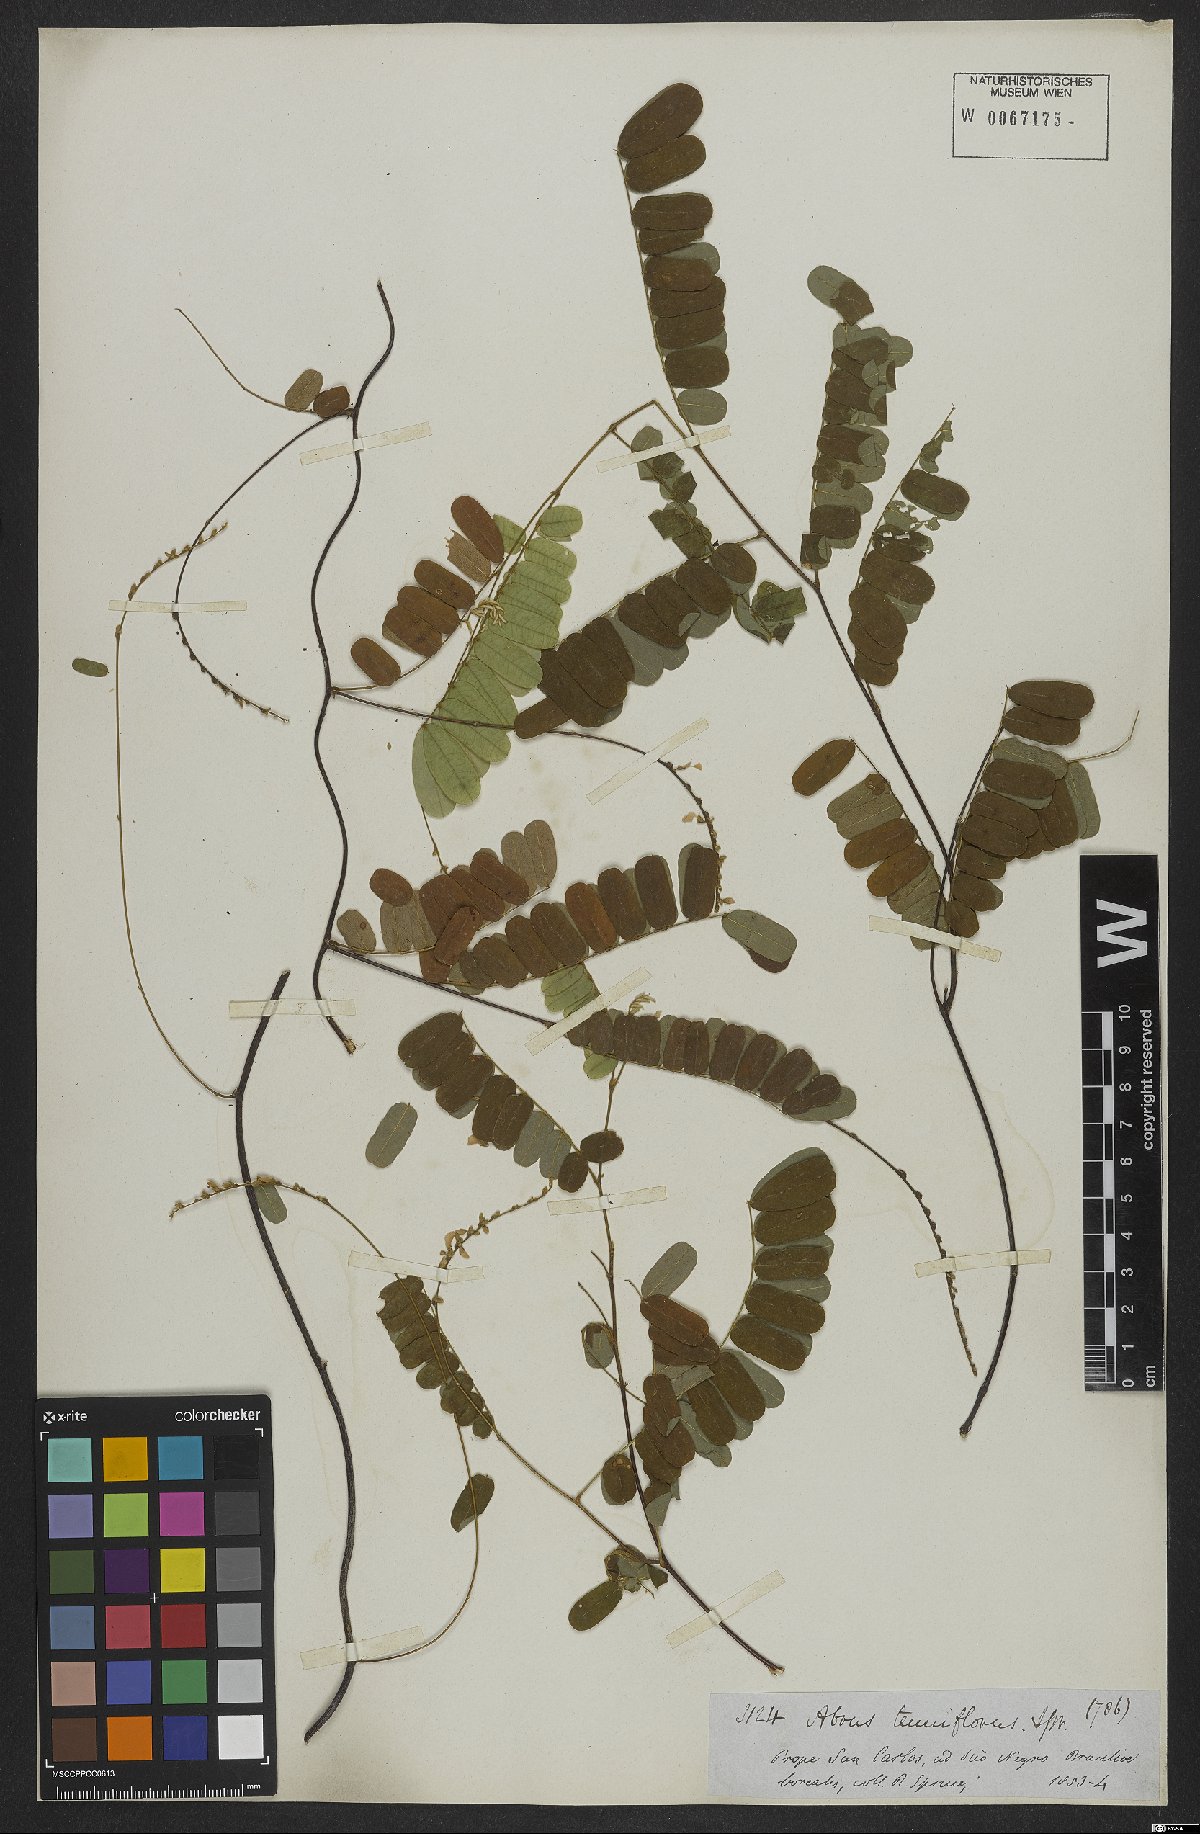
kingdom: Plantae
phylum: Tracheophyta
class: Magnoliopsida
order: Fabales
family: Fabaceae
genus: Abrus
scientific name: Abrus melanospermus
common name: Licorice-root
